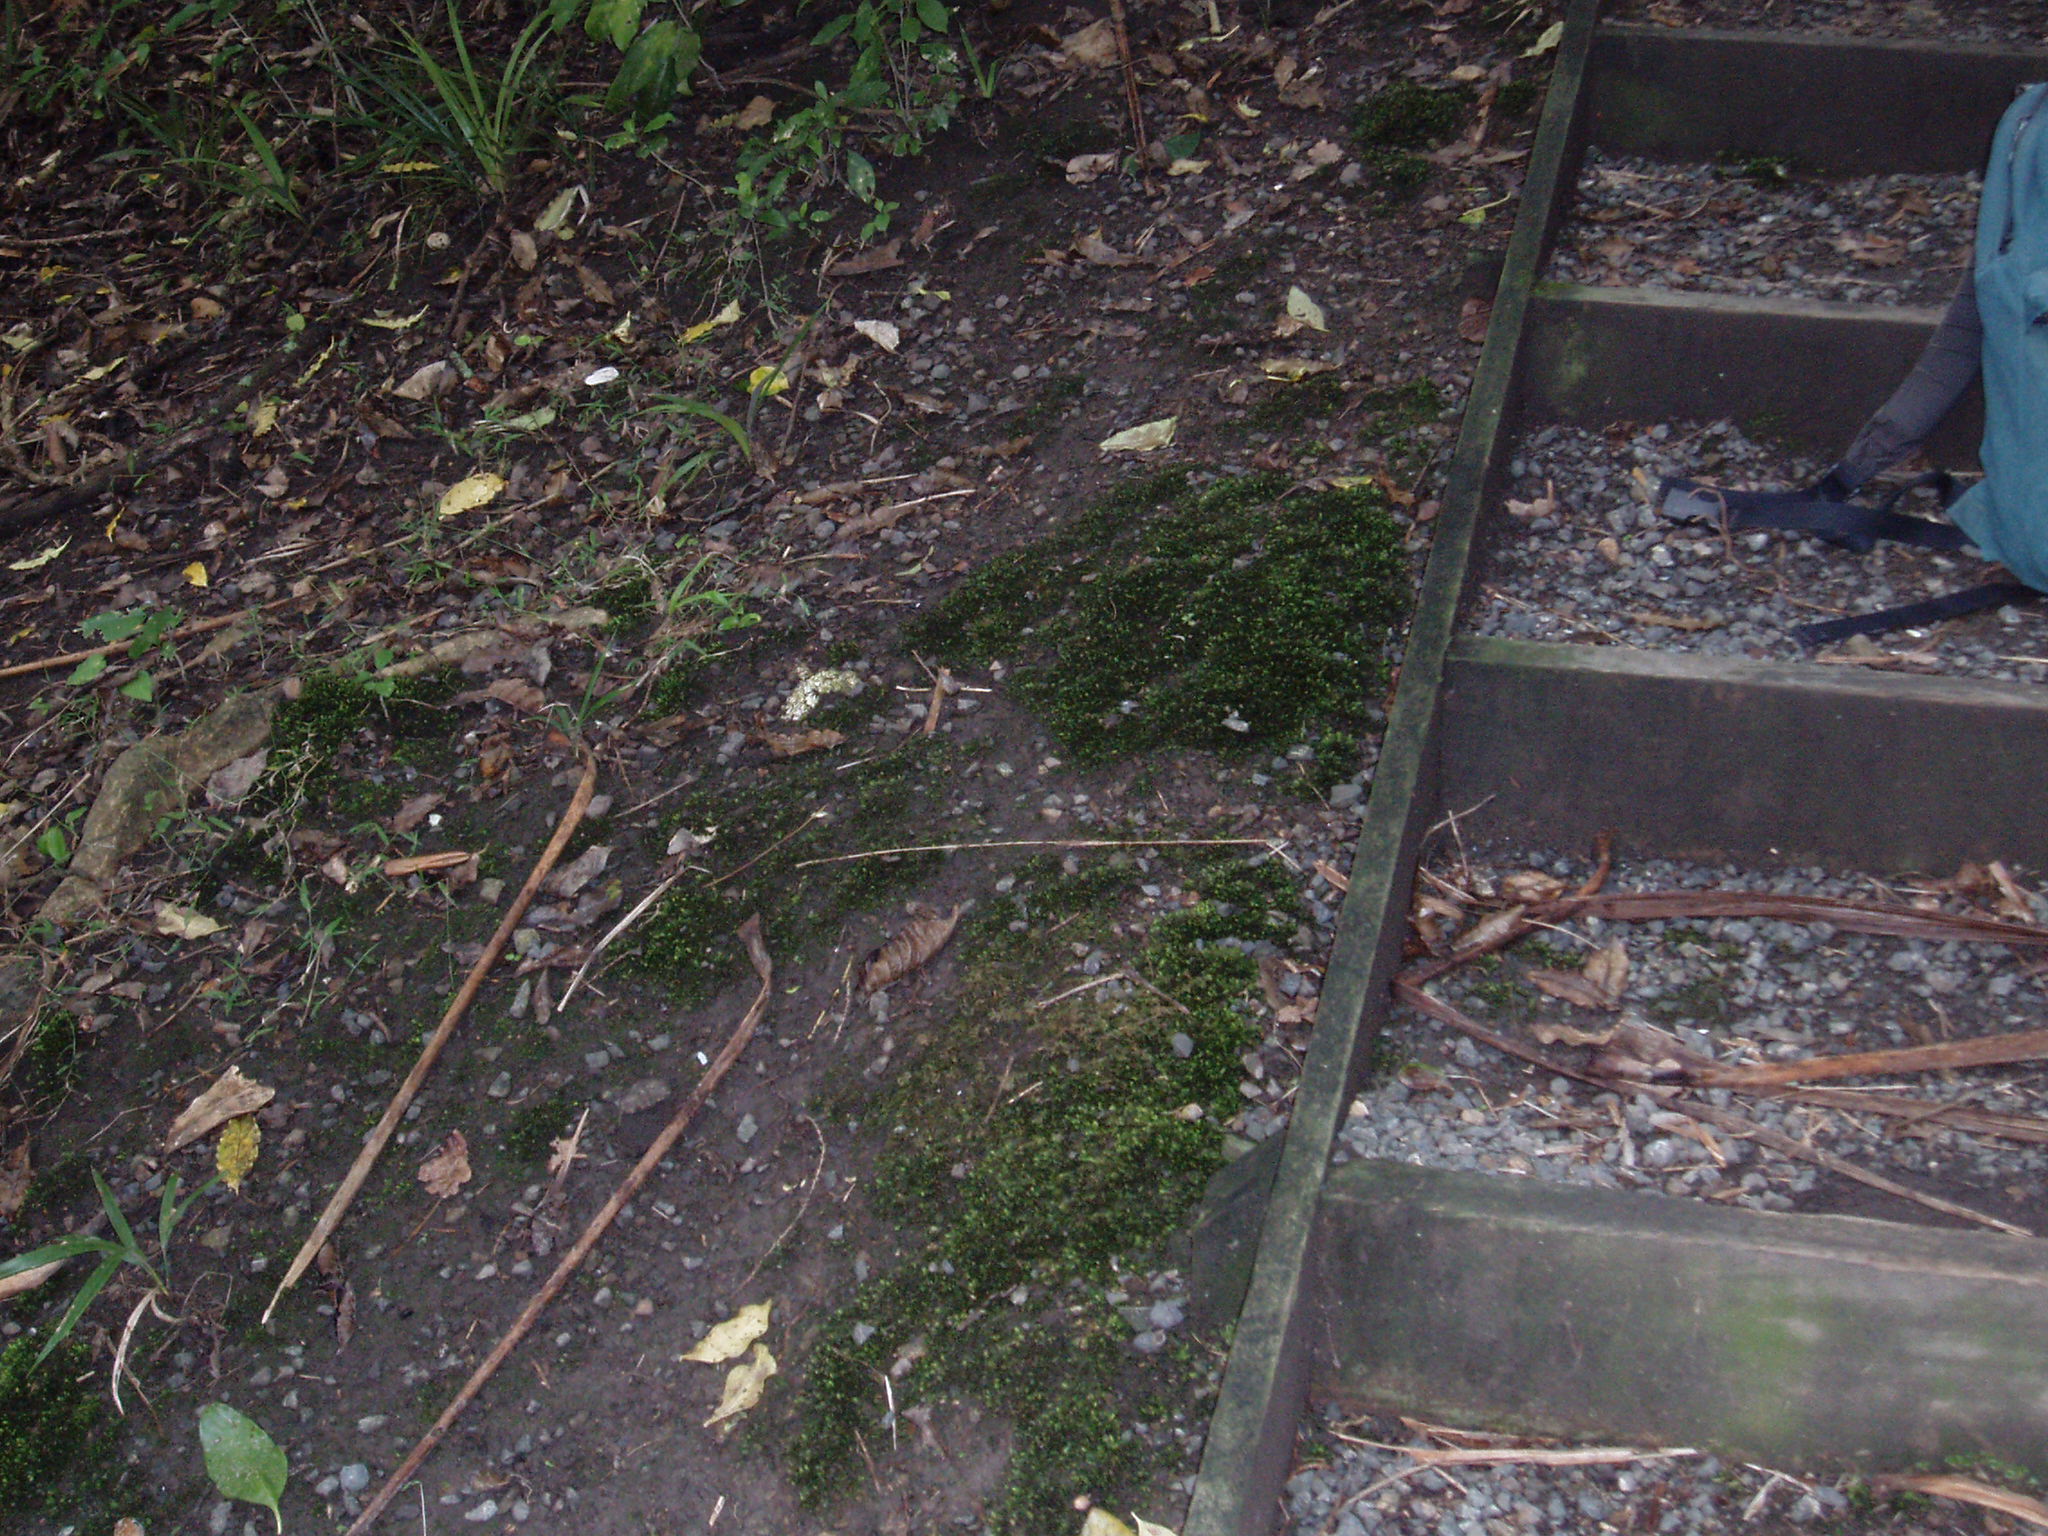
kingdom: Plantae
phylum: Bryophyta
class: Bryopsida
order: Dicranales
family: Fissidentaceae
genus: Fissidens
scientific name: Fissidens taxifolius
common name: Yew-leaved pocket moss
